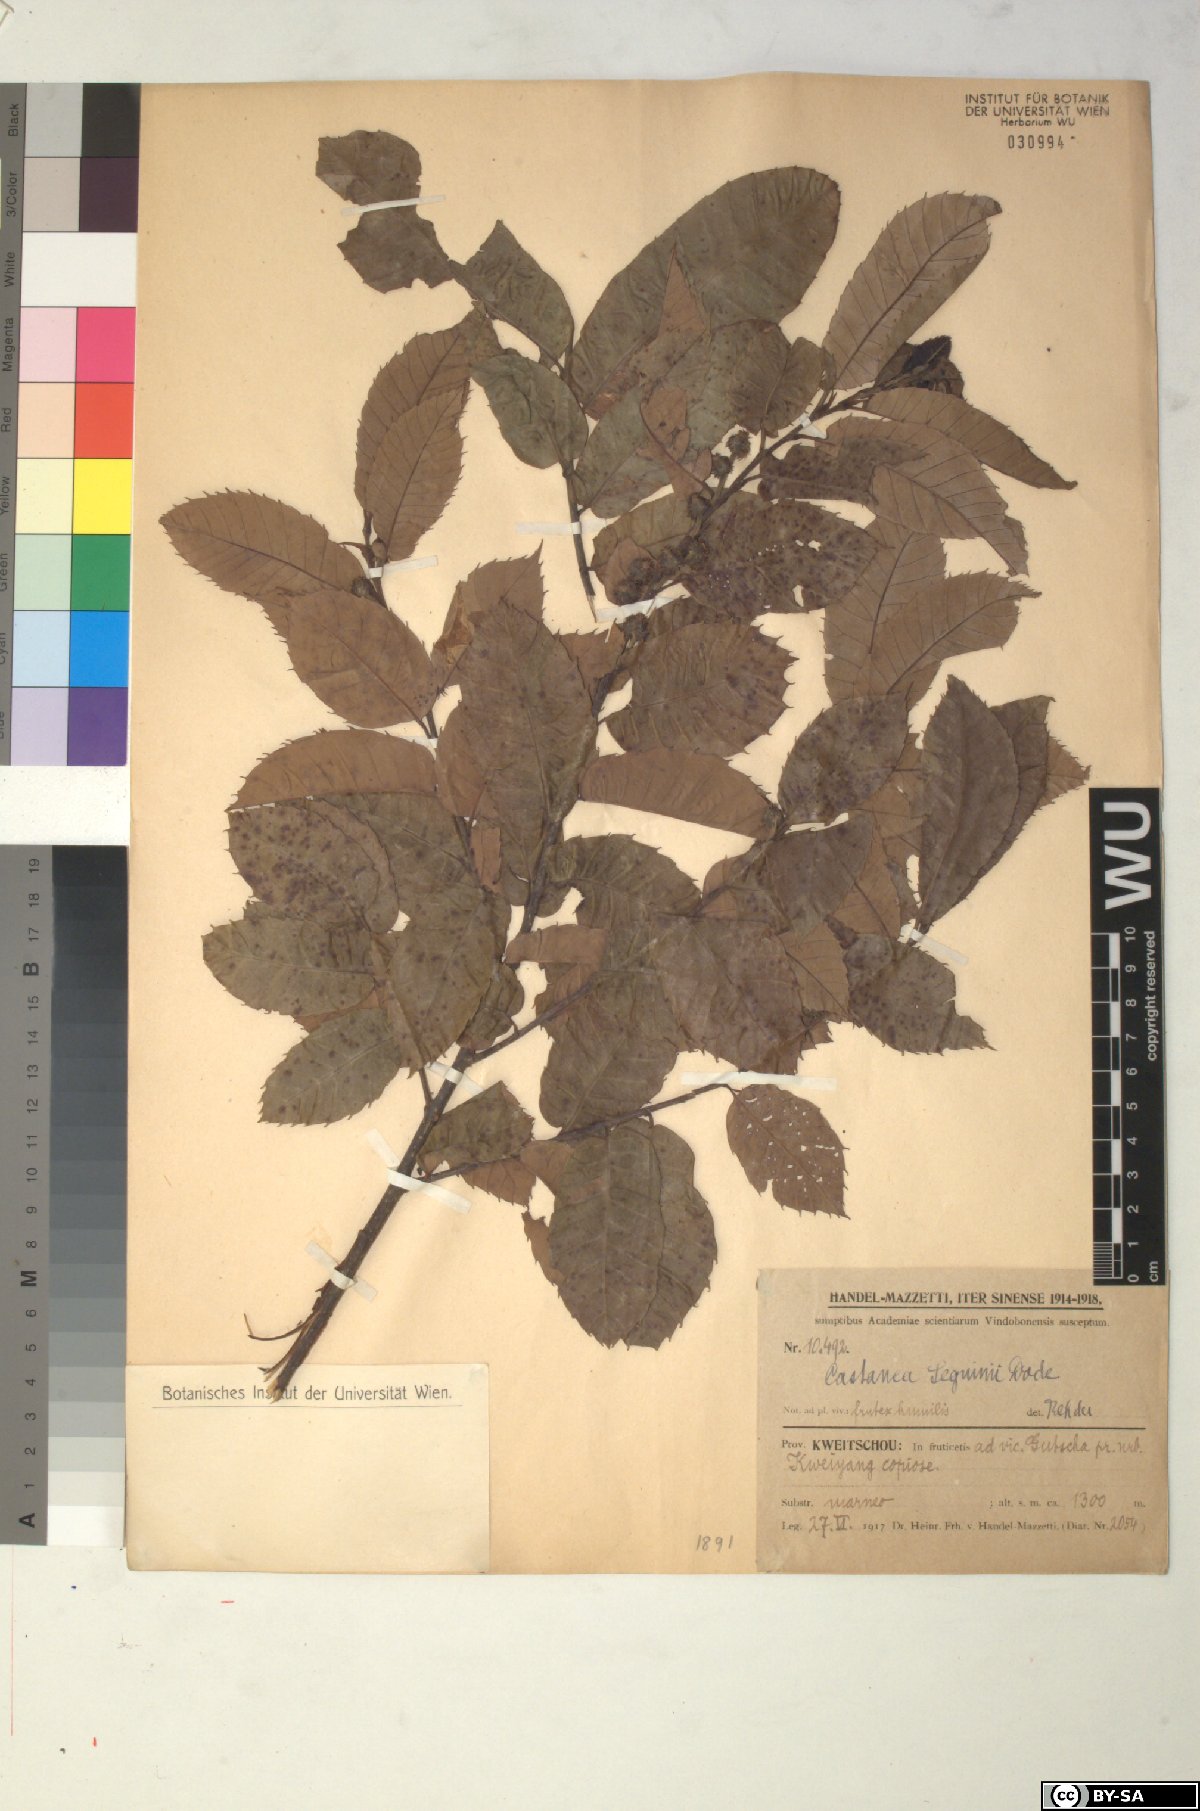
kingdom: Plantae
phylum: Tracheophyta
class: Magnoliopsida
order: Fagales
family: Fagaceae
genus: Castanea
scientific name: Castanea seguinii
